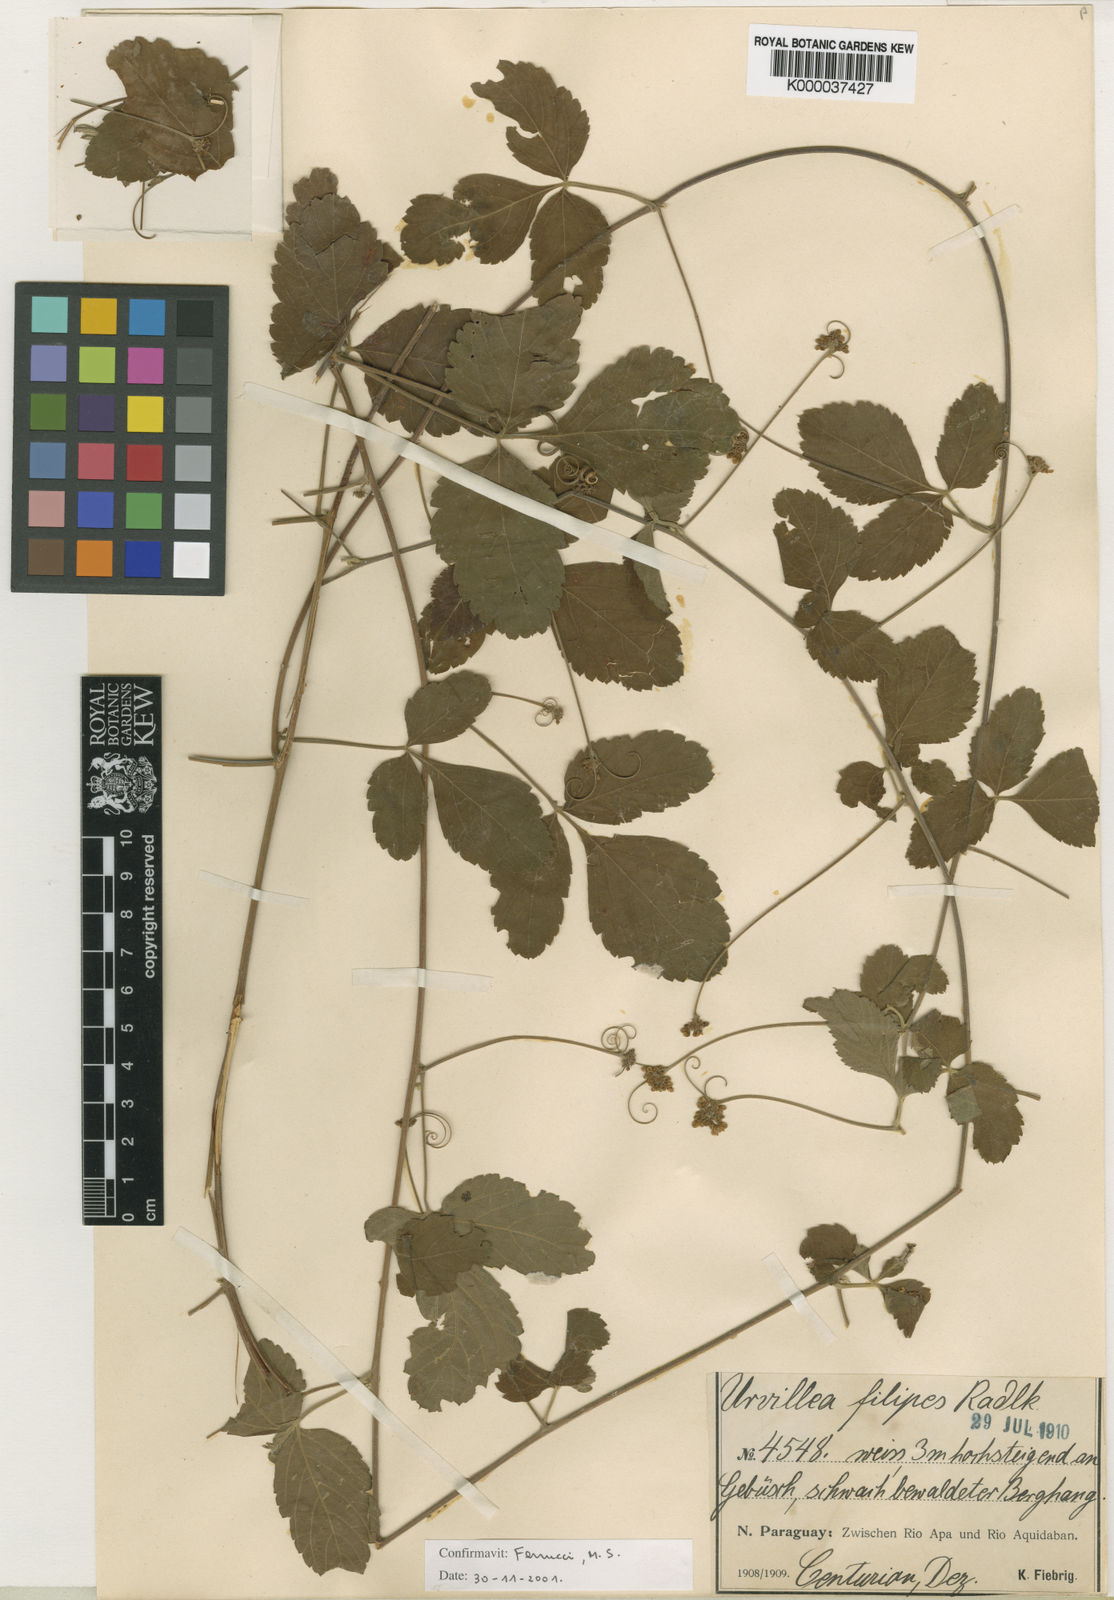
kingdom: Plantae
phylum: Tracheophyta
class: Magnoliopsida
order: Sapindales
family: Sapindaceae
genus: Urvillea
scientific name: Urvillea filipes
